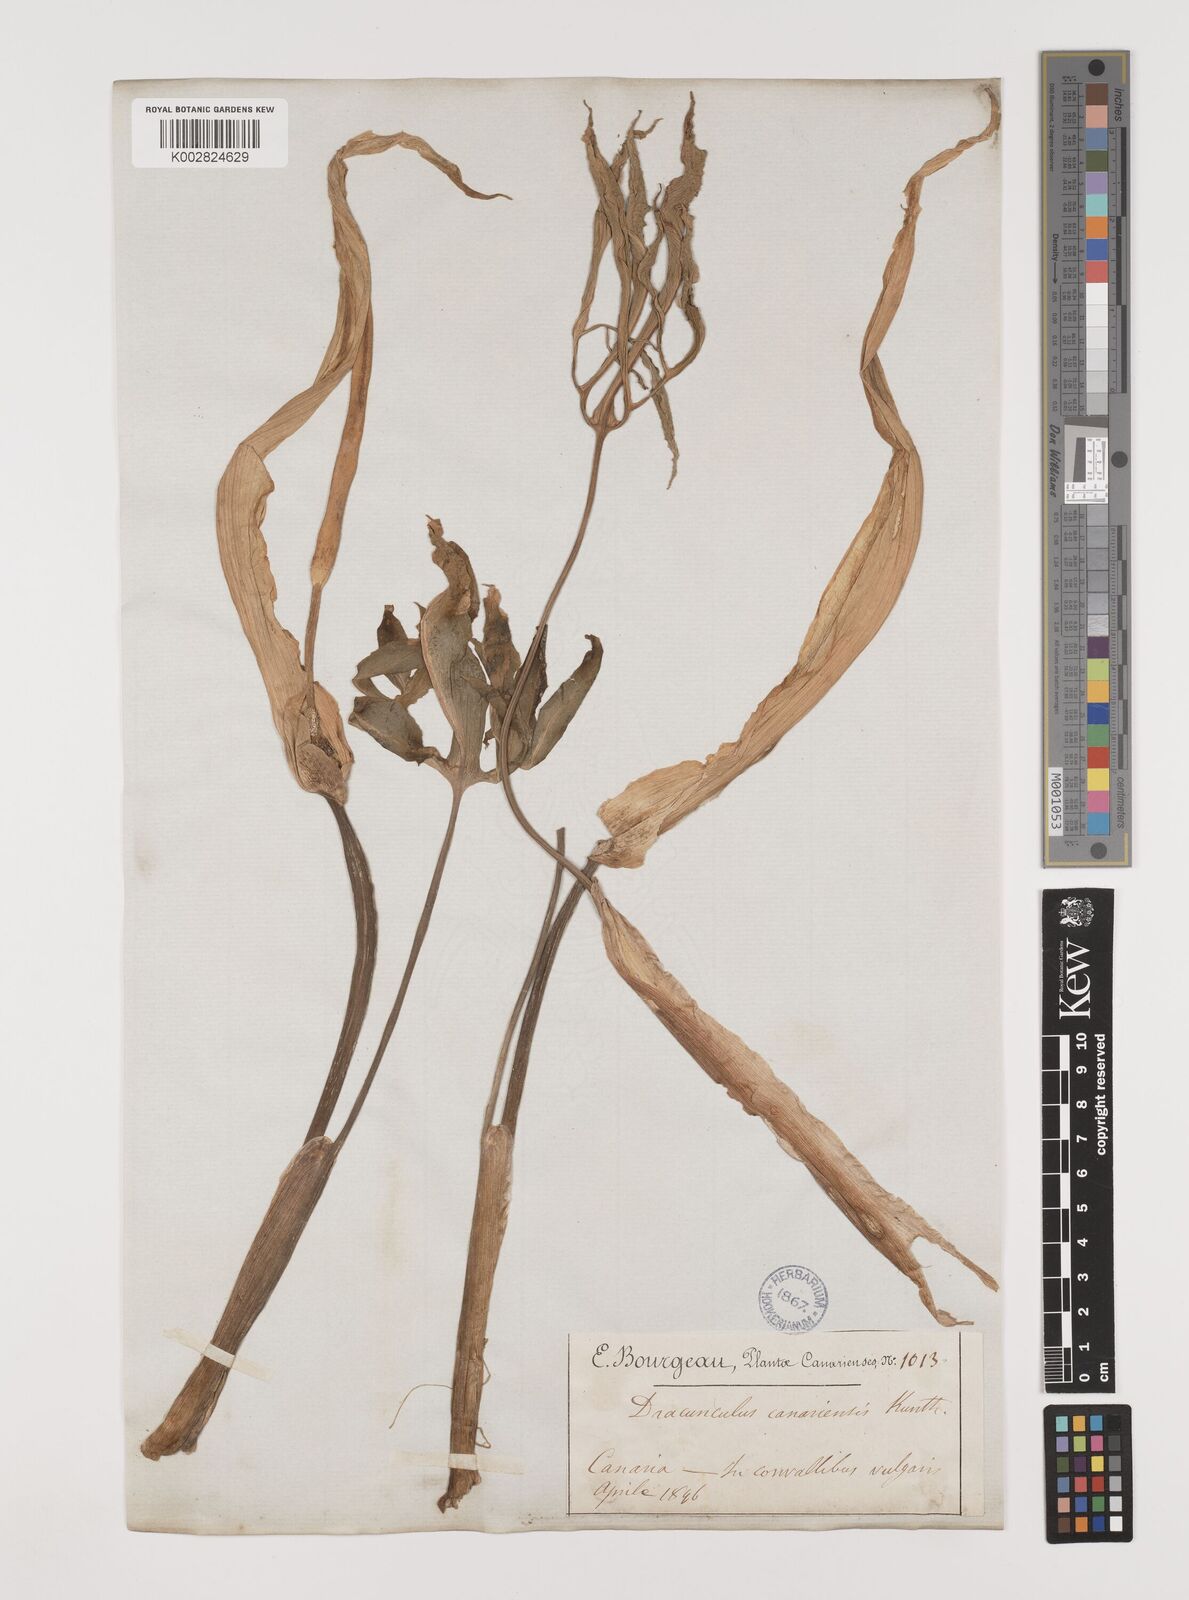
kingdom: Plantae
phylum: Tracheophyta
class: Liliopsida
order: Alismatales
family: Araceae
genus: Dracunculus
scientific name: Dracunculus
